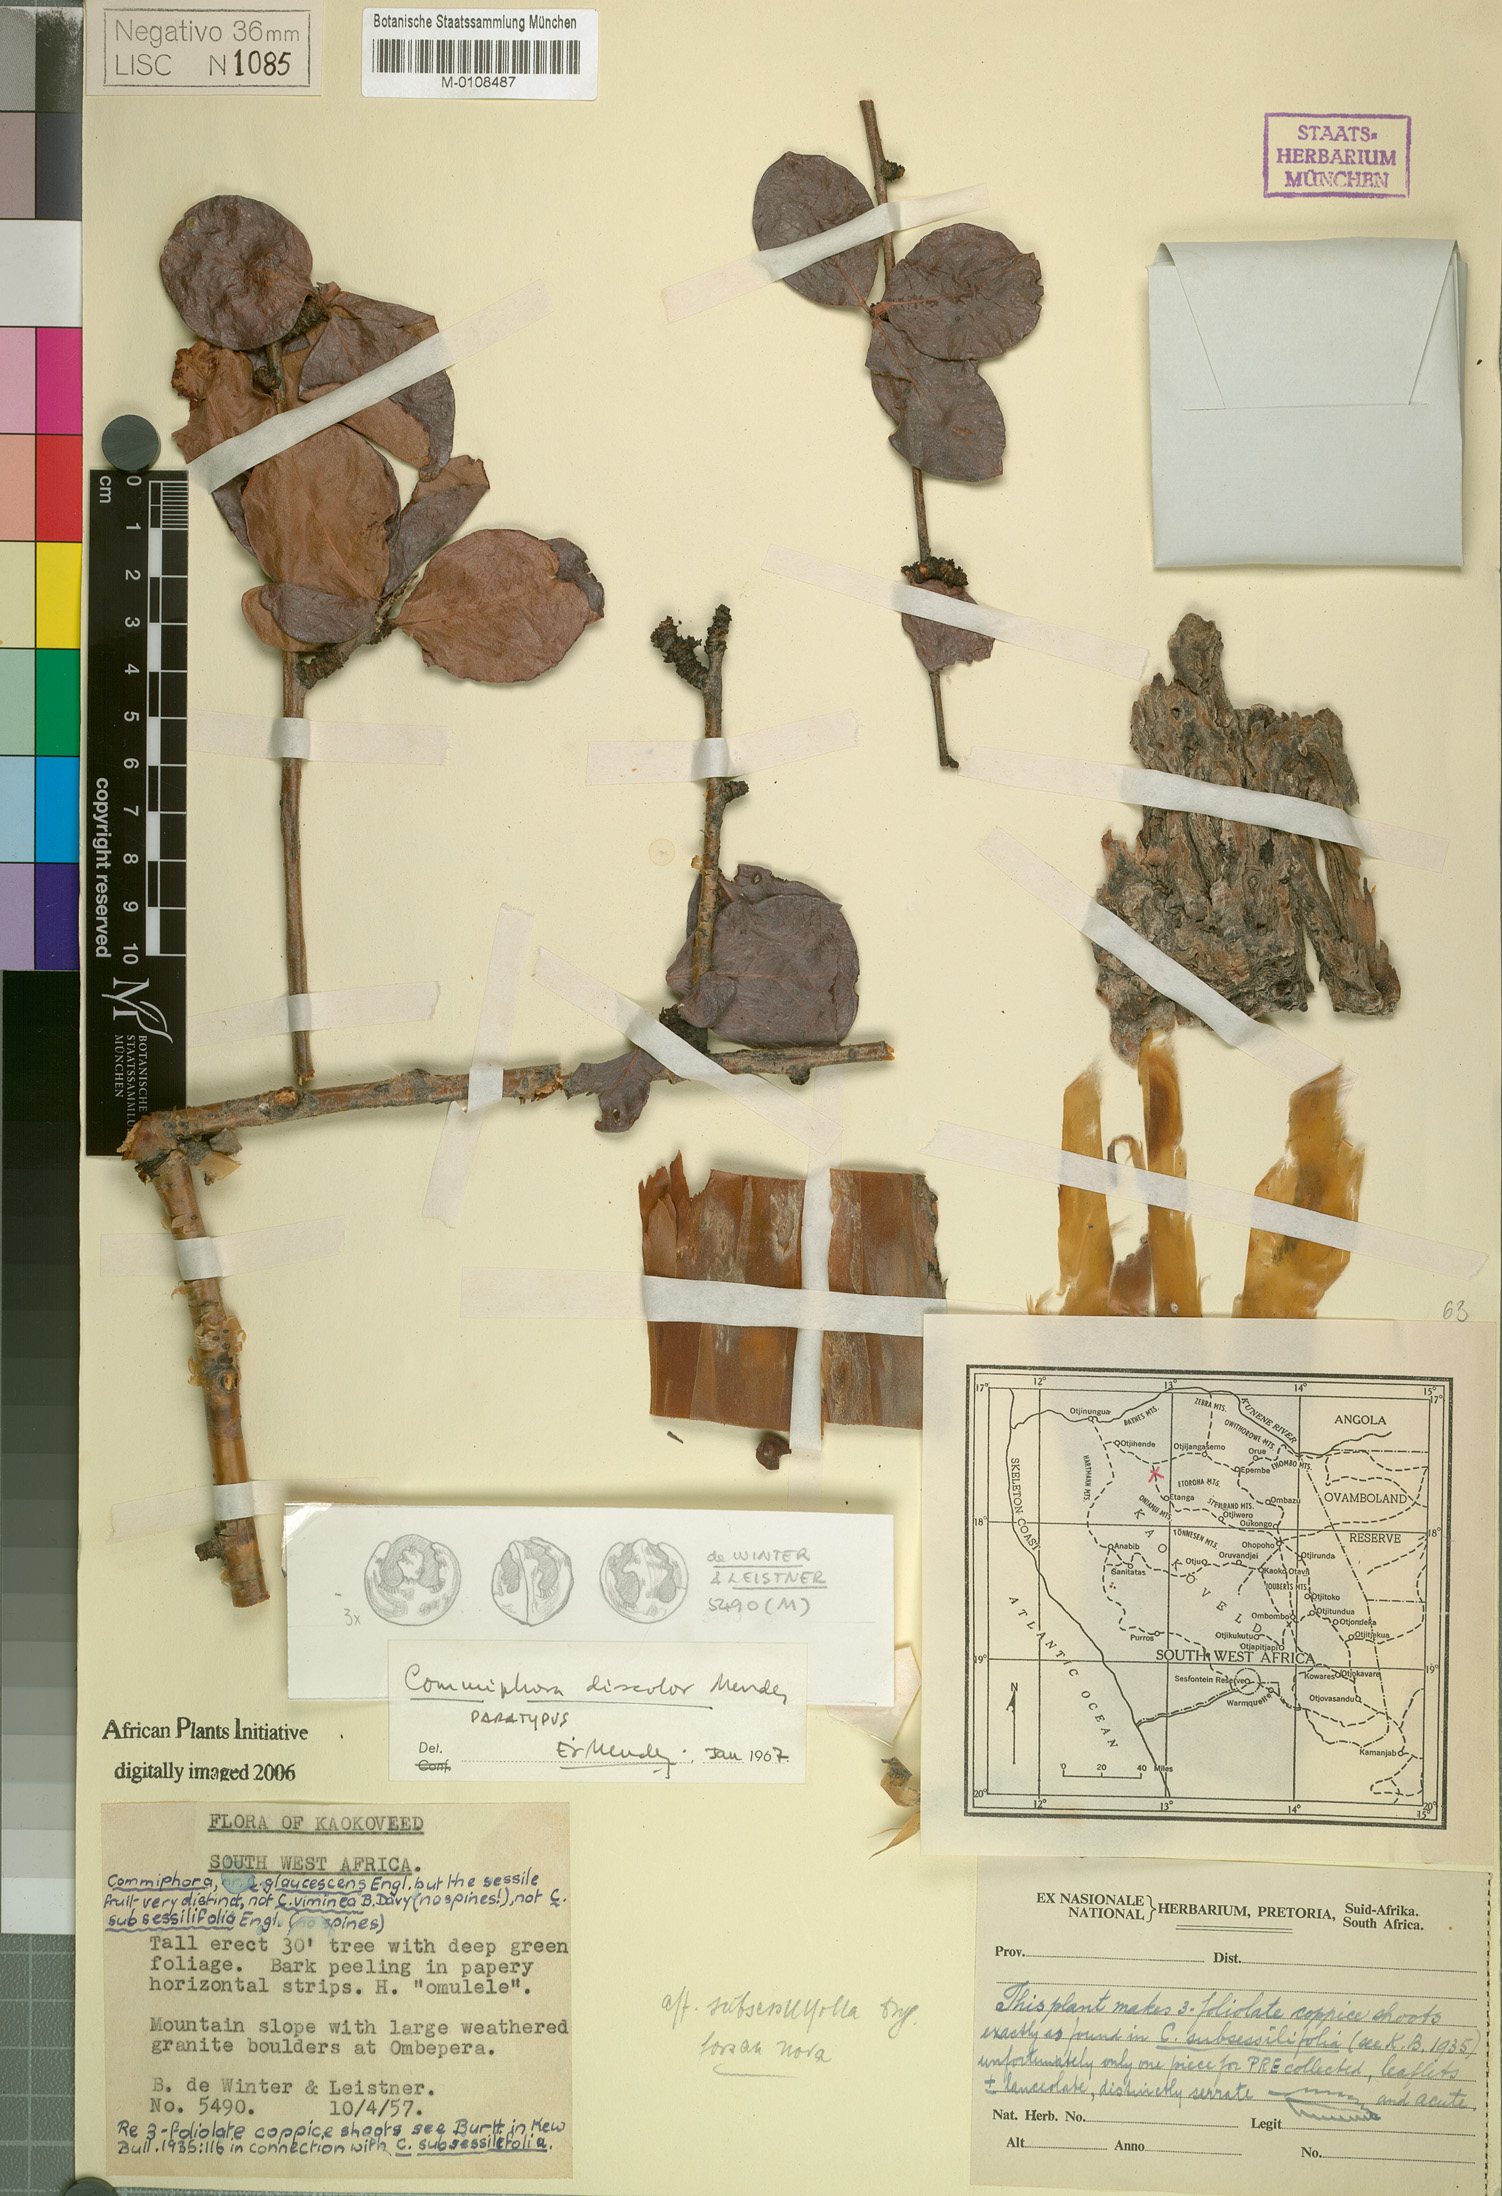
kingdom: Plantae
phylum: Tracheophyta
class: Magnoliopsida
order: Sapindales
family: Burseraceae
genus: Commiphora
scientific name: Commiphora discolor
